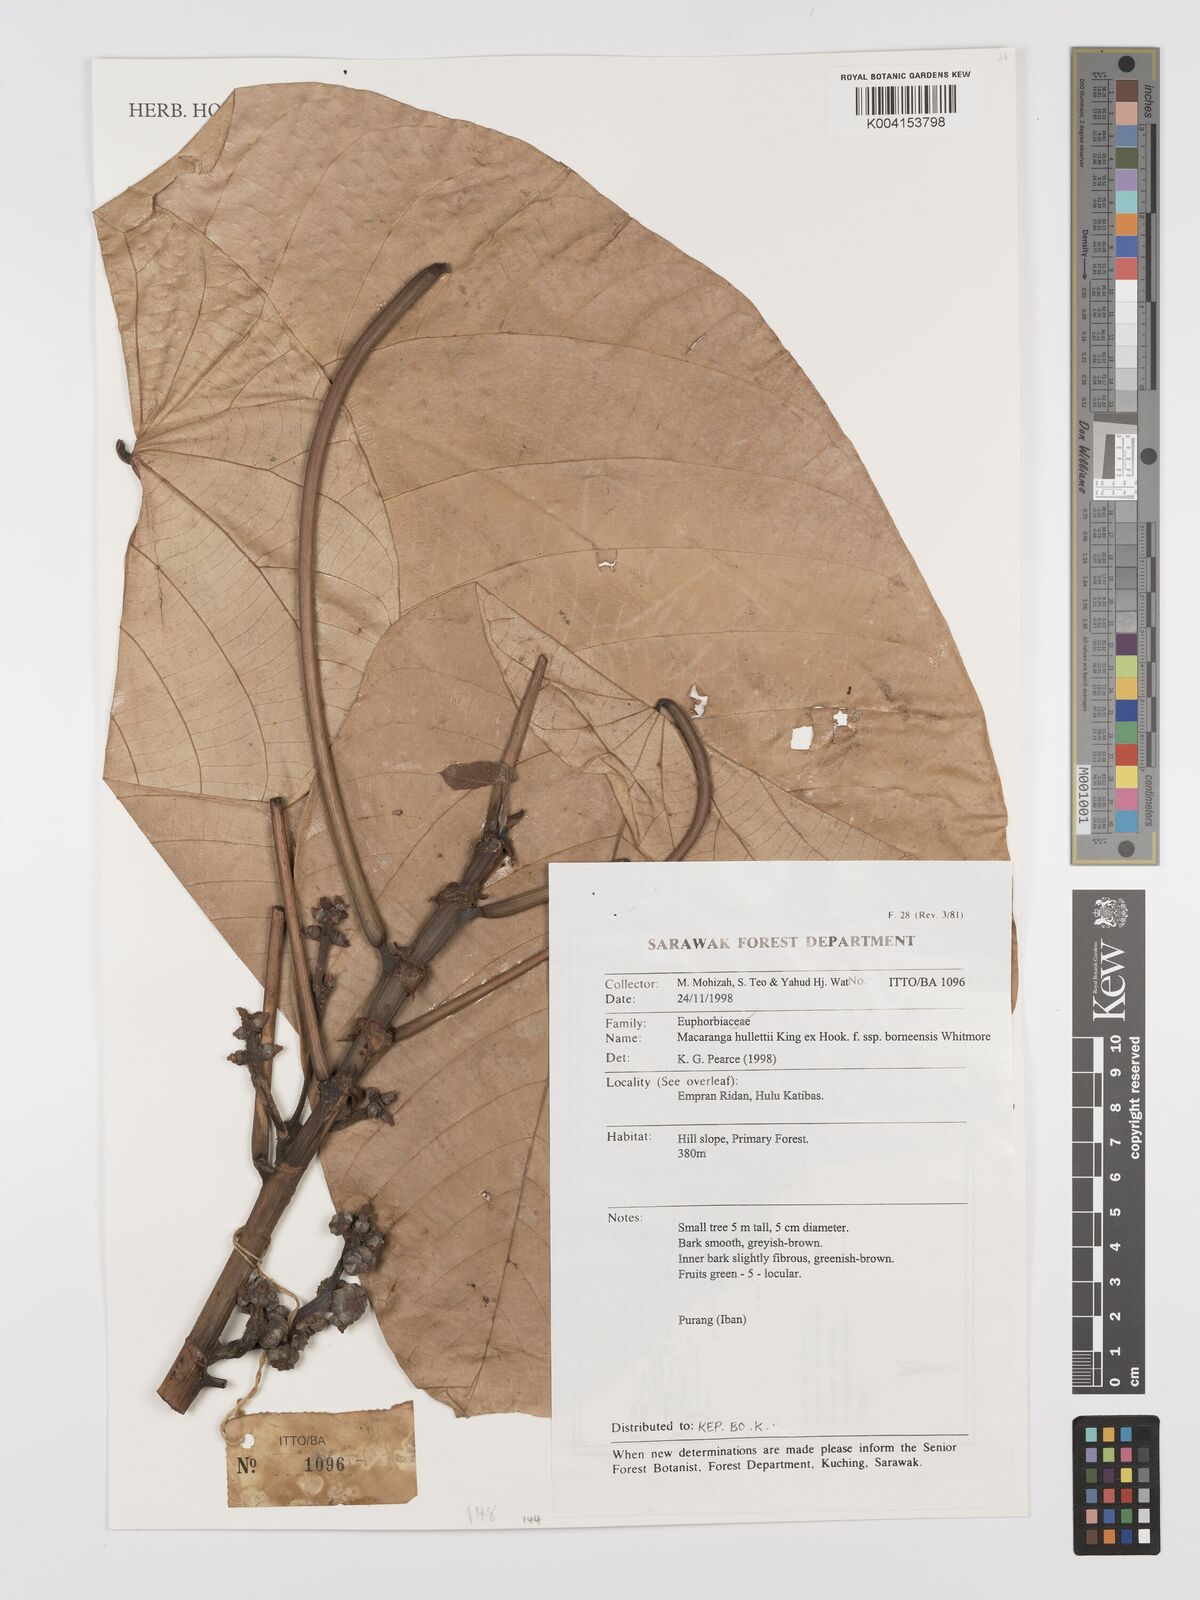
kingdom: Plantae
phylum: Tracheophyta
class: Magnoliopsida
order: Malpighiales
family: Euphorbiaceae
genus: Macaranga
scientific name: Macaranga hullettii
